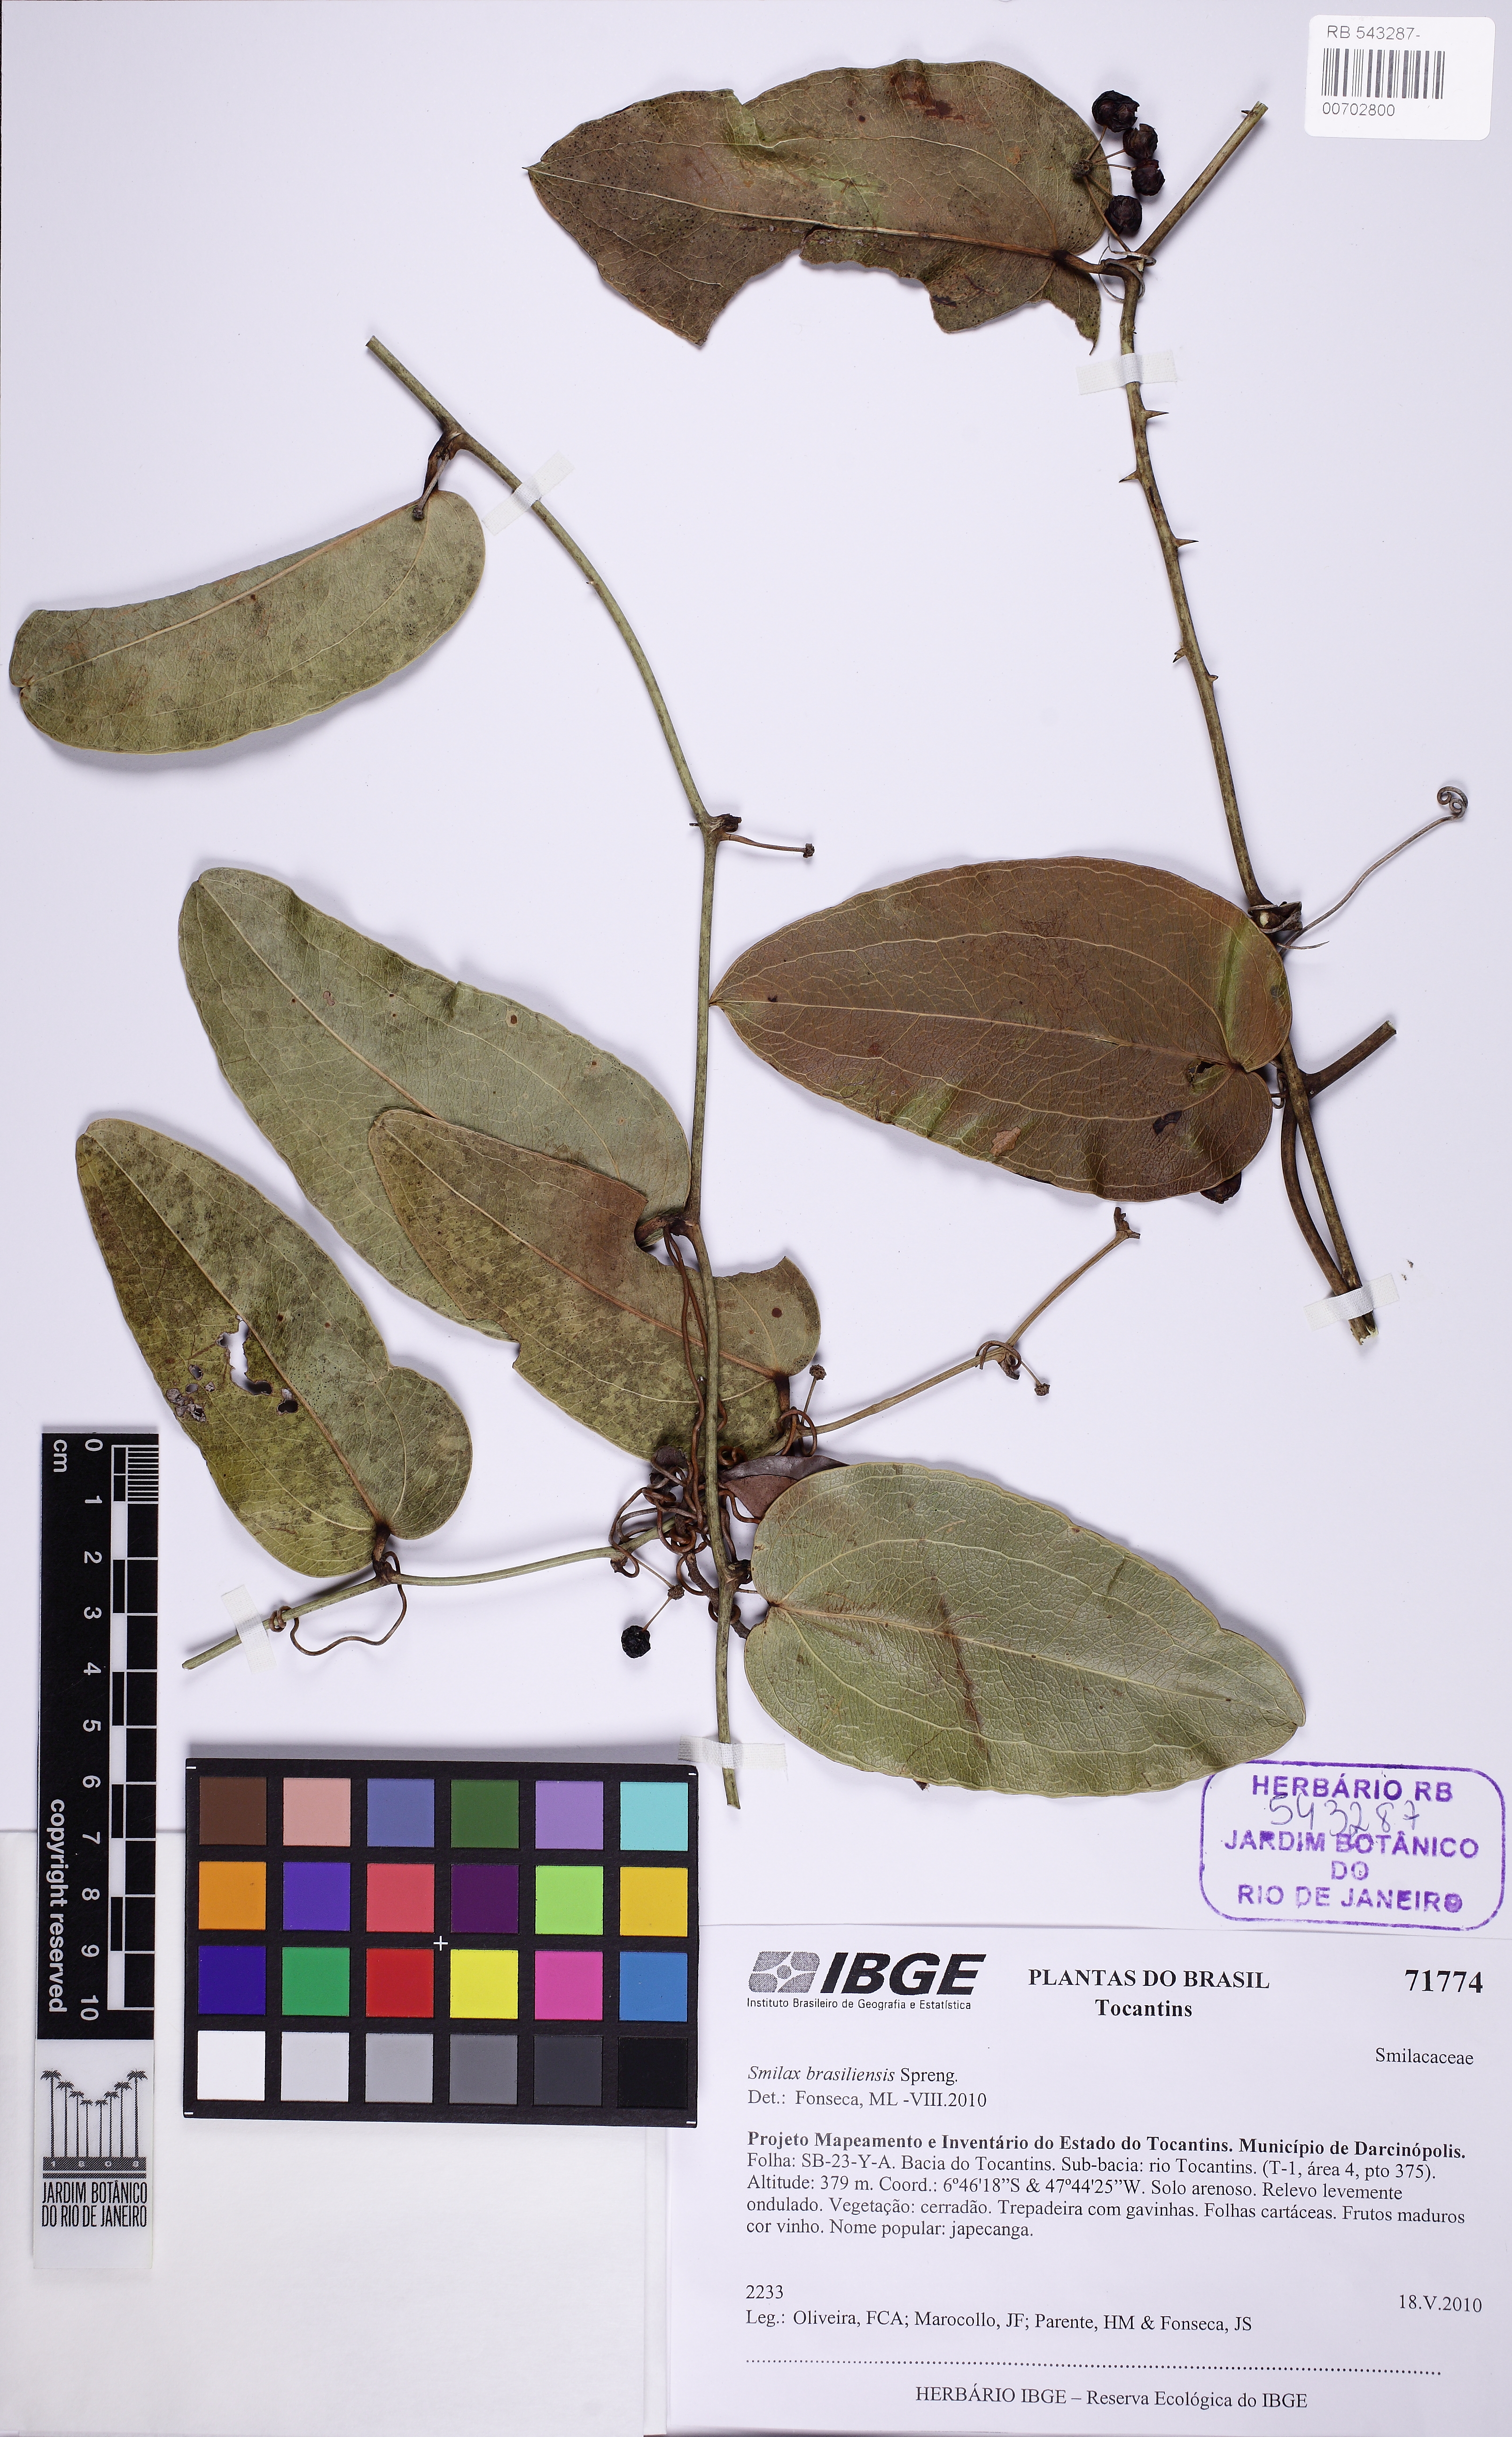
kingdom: Plantae
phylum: Tracheophyta
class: Liliopsida
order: Liliales
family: Smilacaceae
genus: Smilax
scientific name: Smilax brasiliensis
